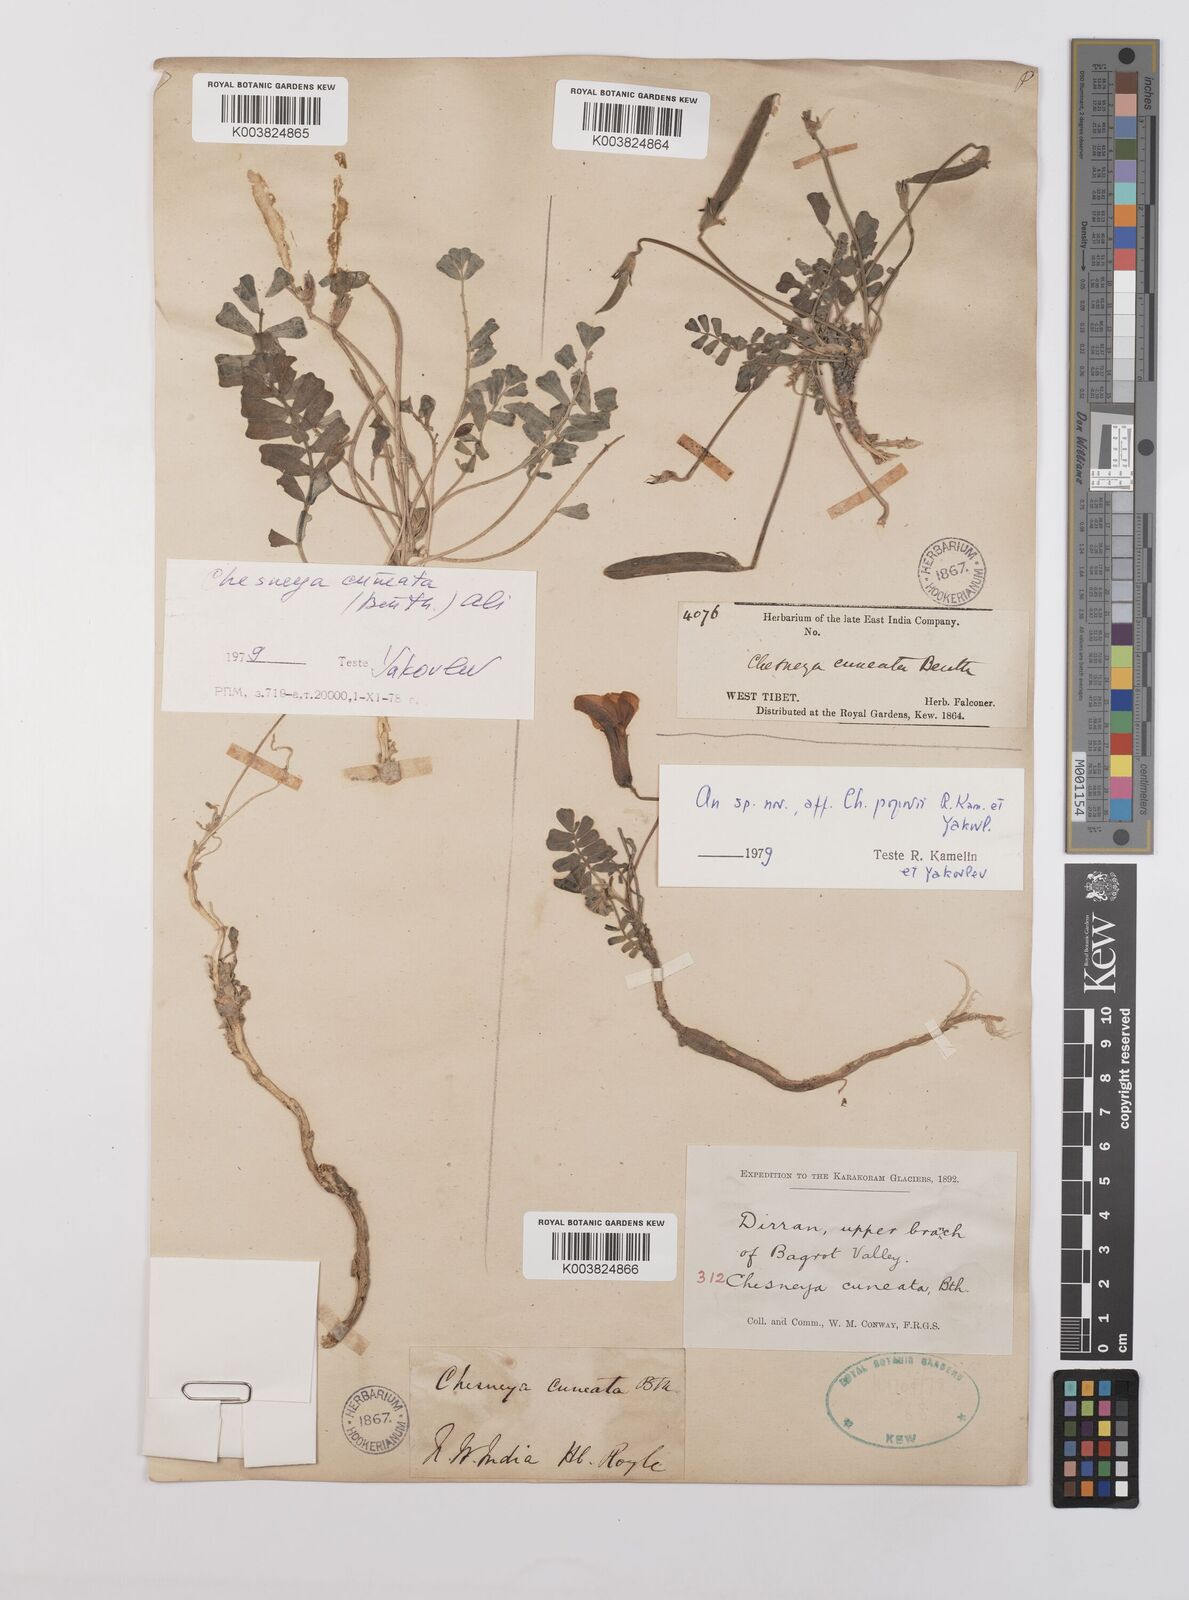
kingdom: Plantae
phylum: Tracheophyta
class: Magnoliopsida
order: Fabales
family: Fabaceae
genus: Chesneya
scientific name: Chesneya cuneata
